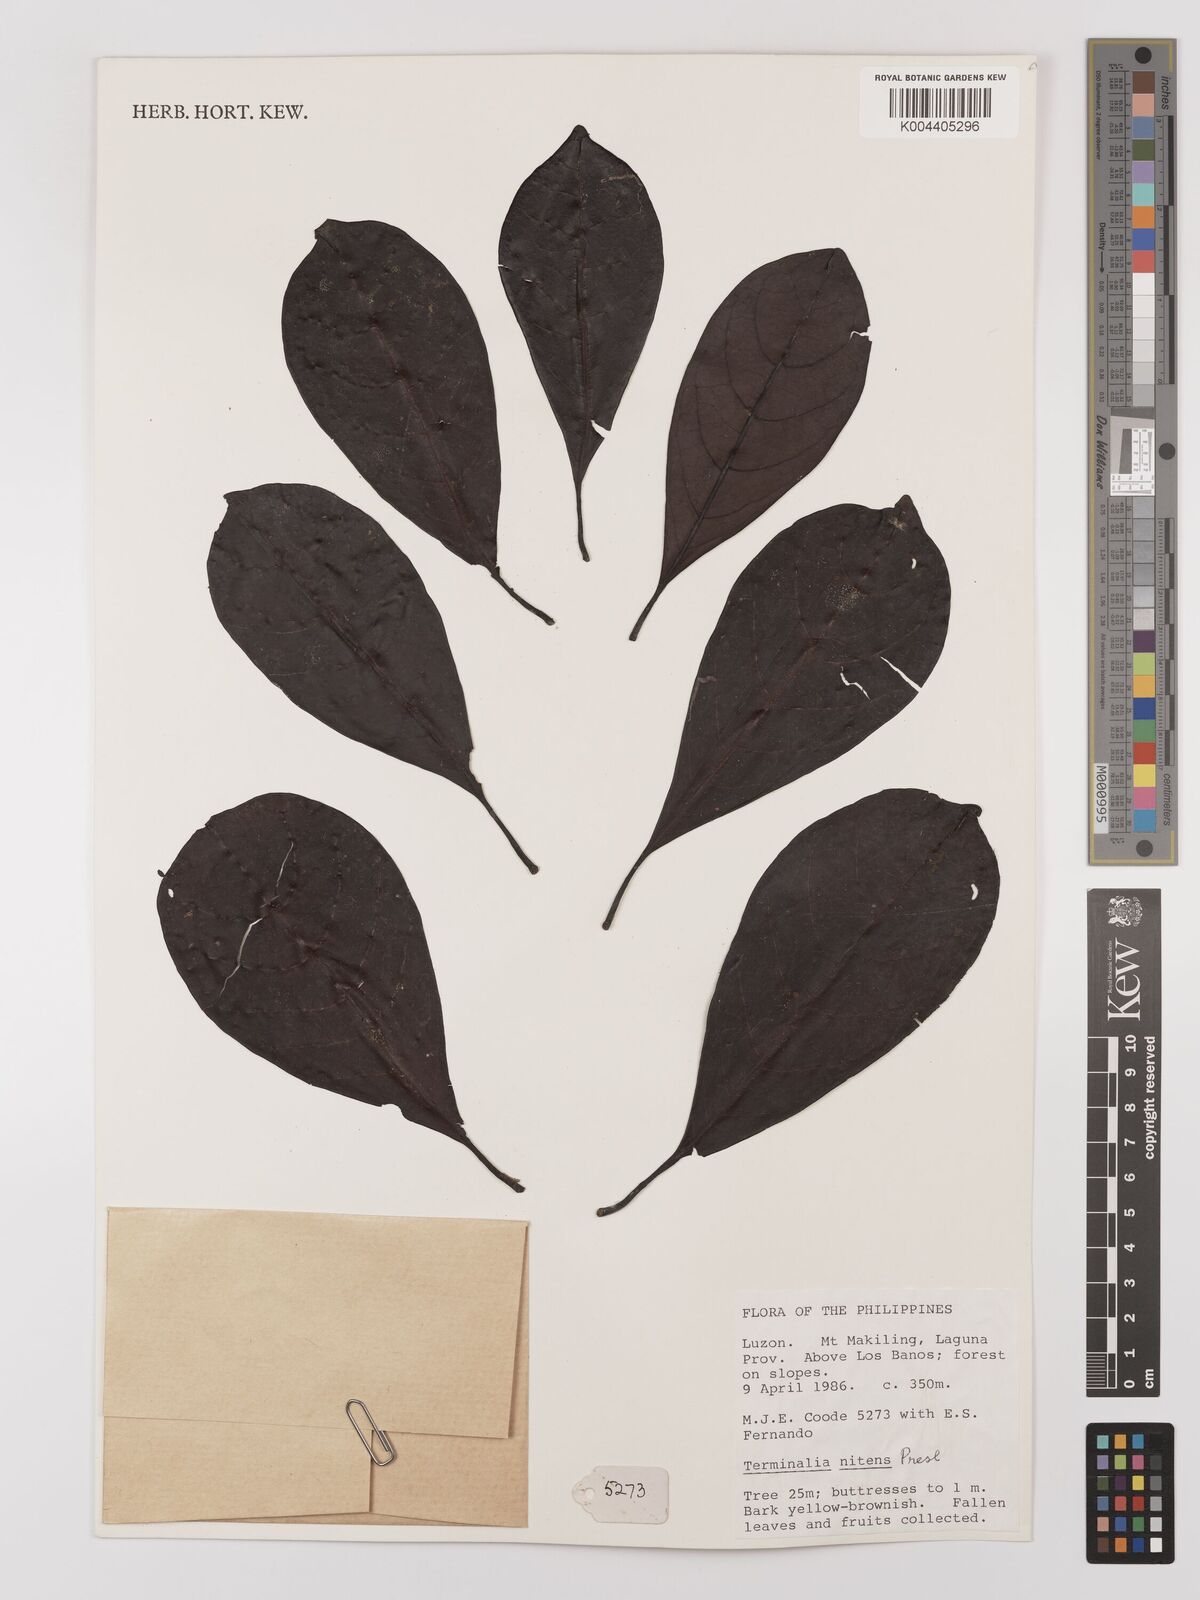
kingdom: Plantae
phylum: Tracheophyta
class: Magnoliopsida
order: Myrtales
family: Combretaceae
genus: Terminalia
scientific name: Terminalia nitens
